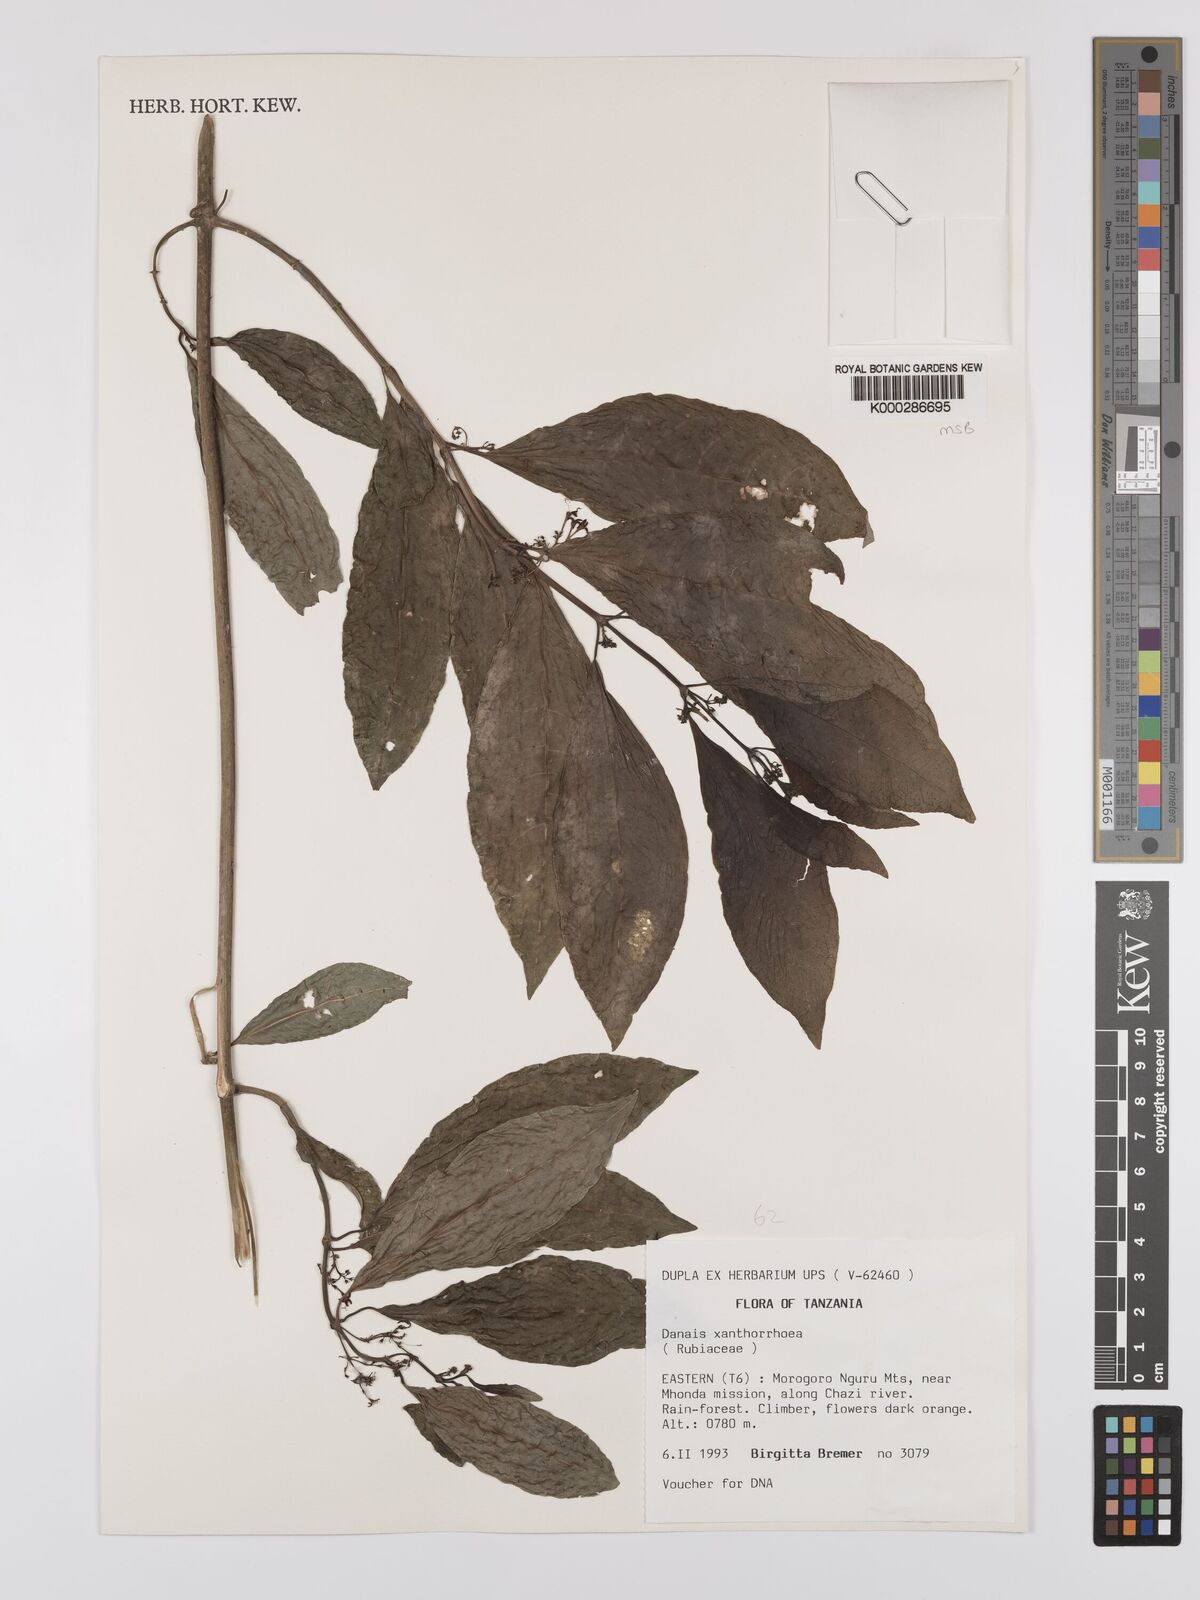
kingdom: Plantae
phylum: Tracheophyta
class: Magnoliopsida
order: Gentianales
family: Rubiaceae
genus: Danais
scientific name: Danais xanthorrhoea
